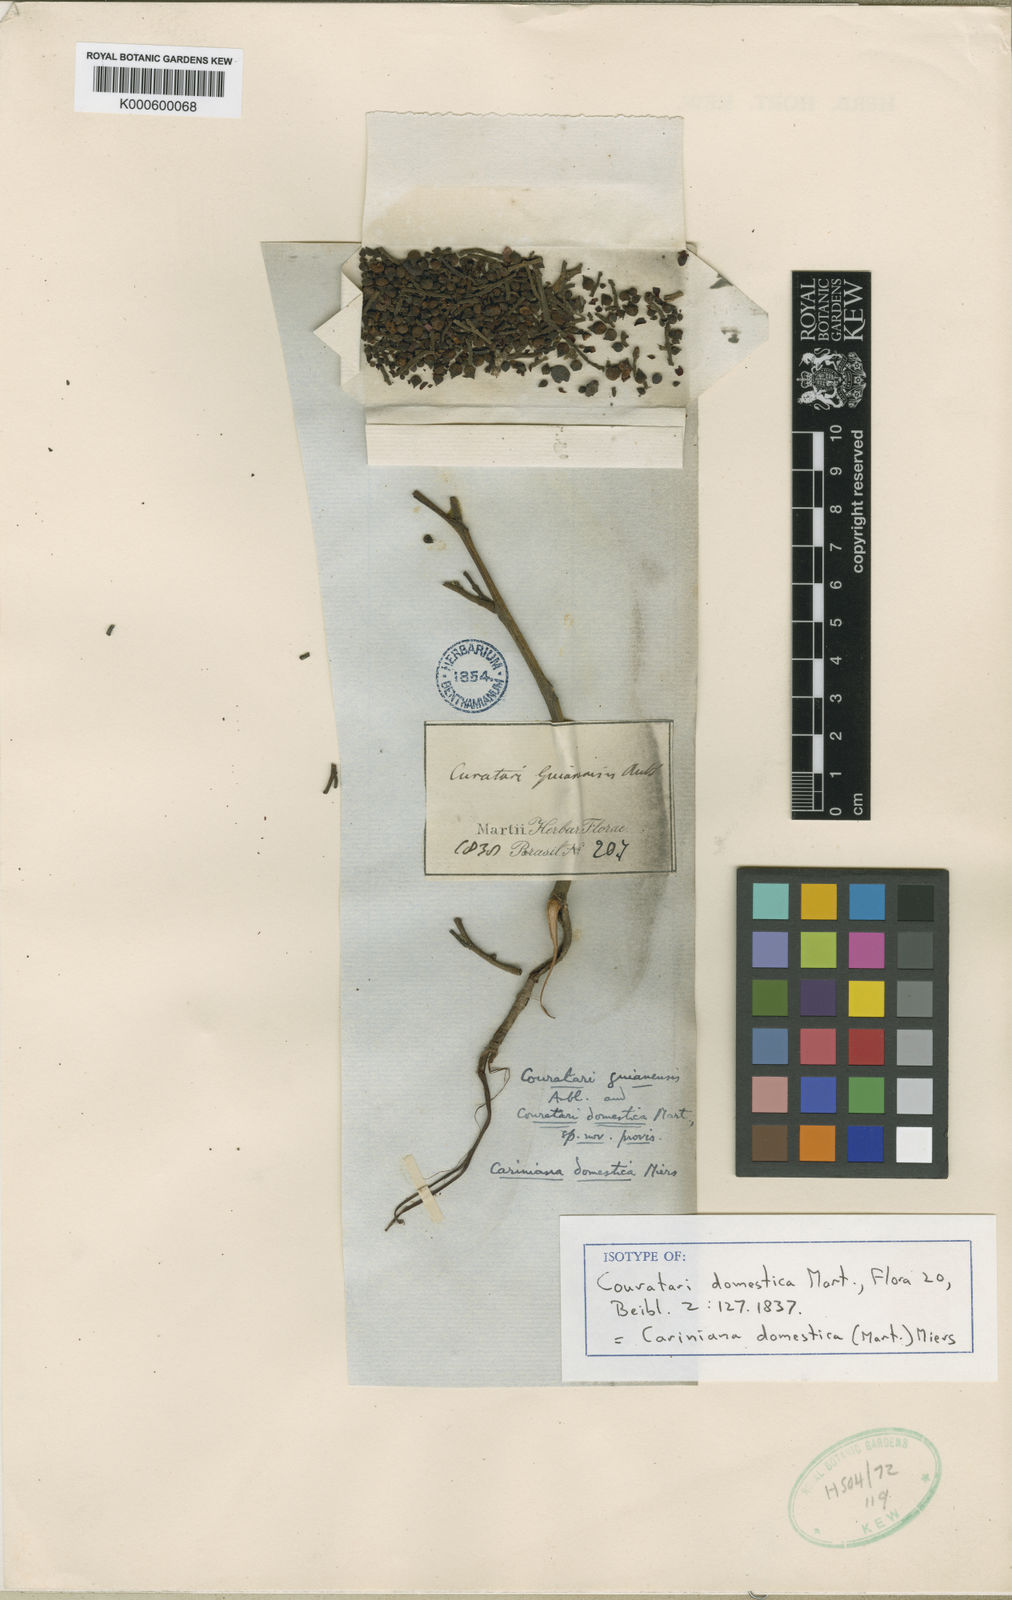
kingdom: Plantae
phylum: Tracheophyta
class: Magnoliopsida
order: Ericales
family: Lecythidaceae
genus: Cariniana
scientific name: Cariniana domestica
